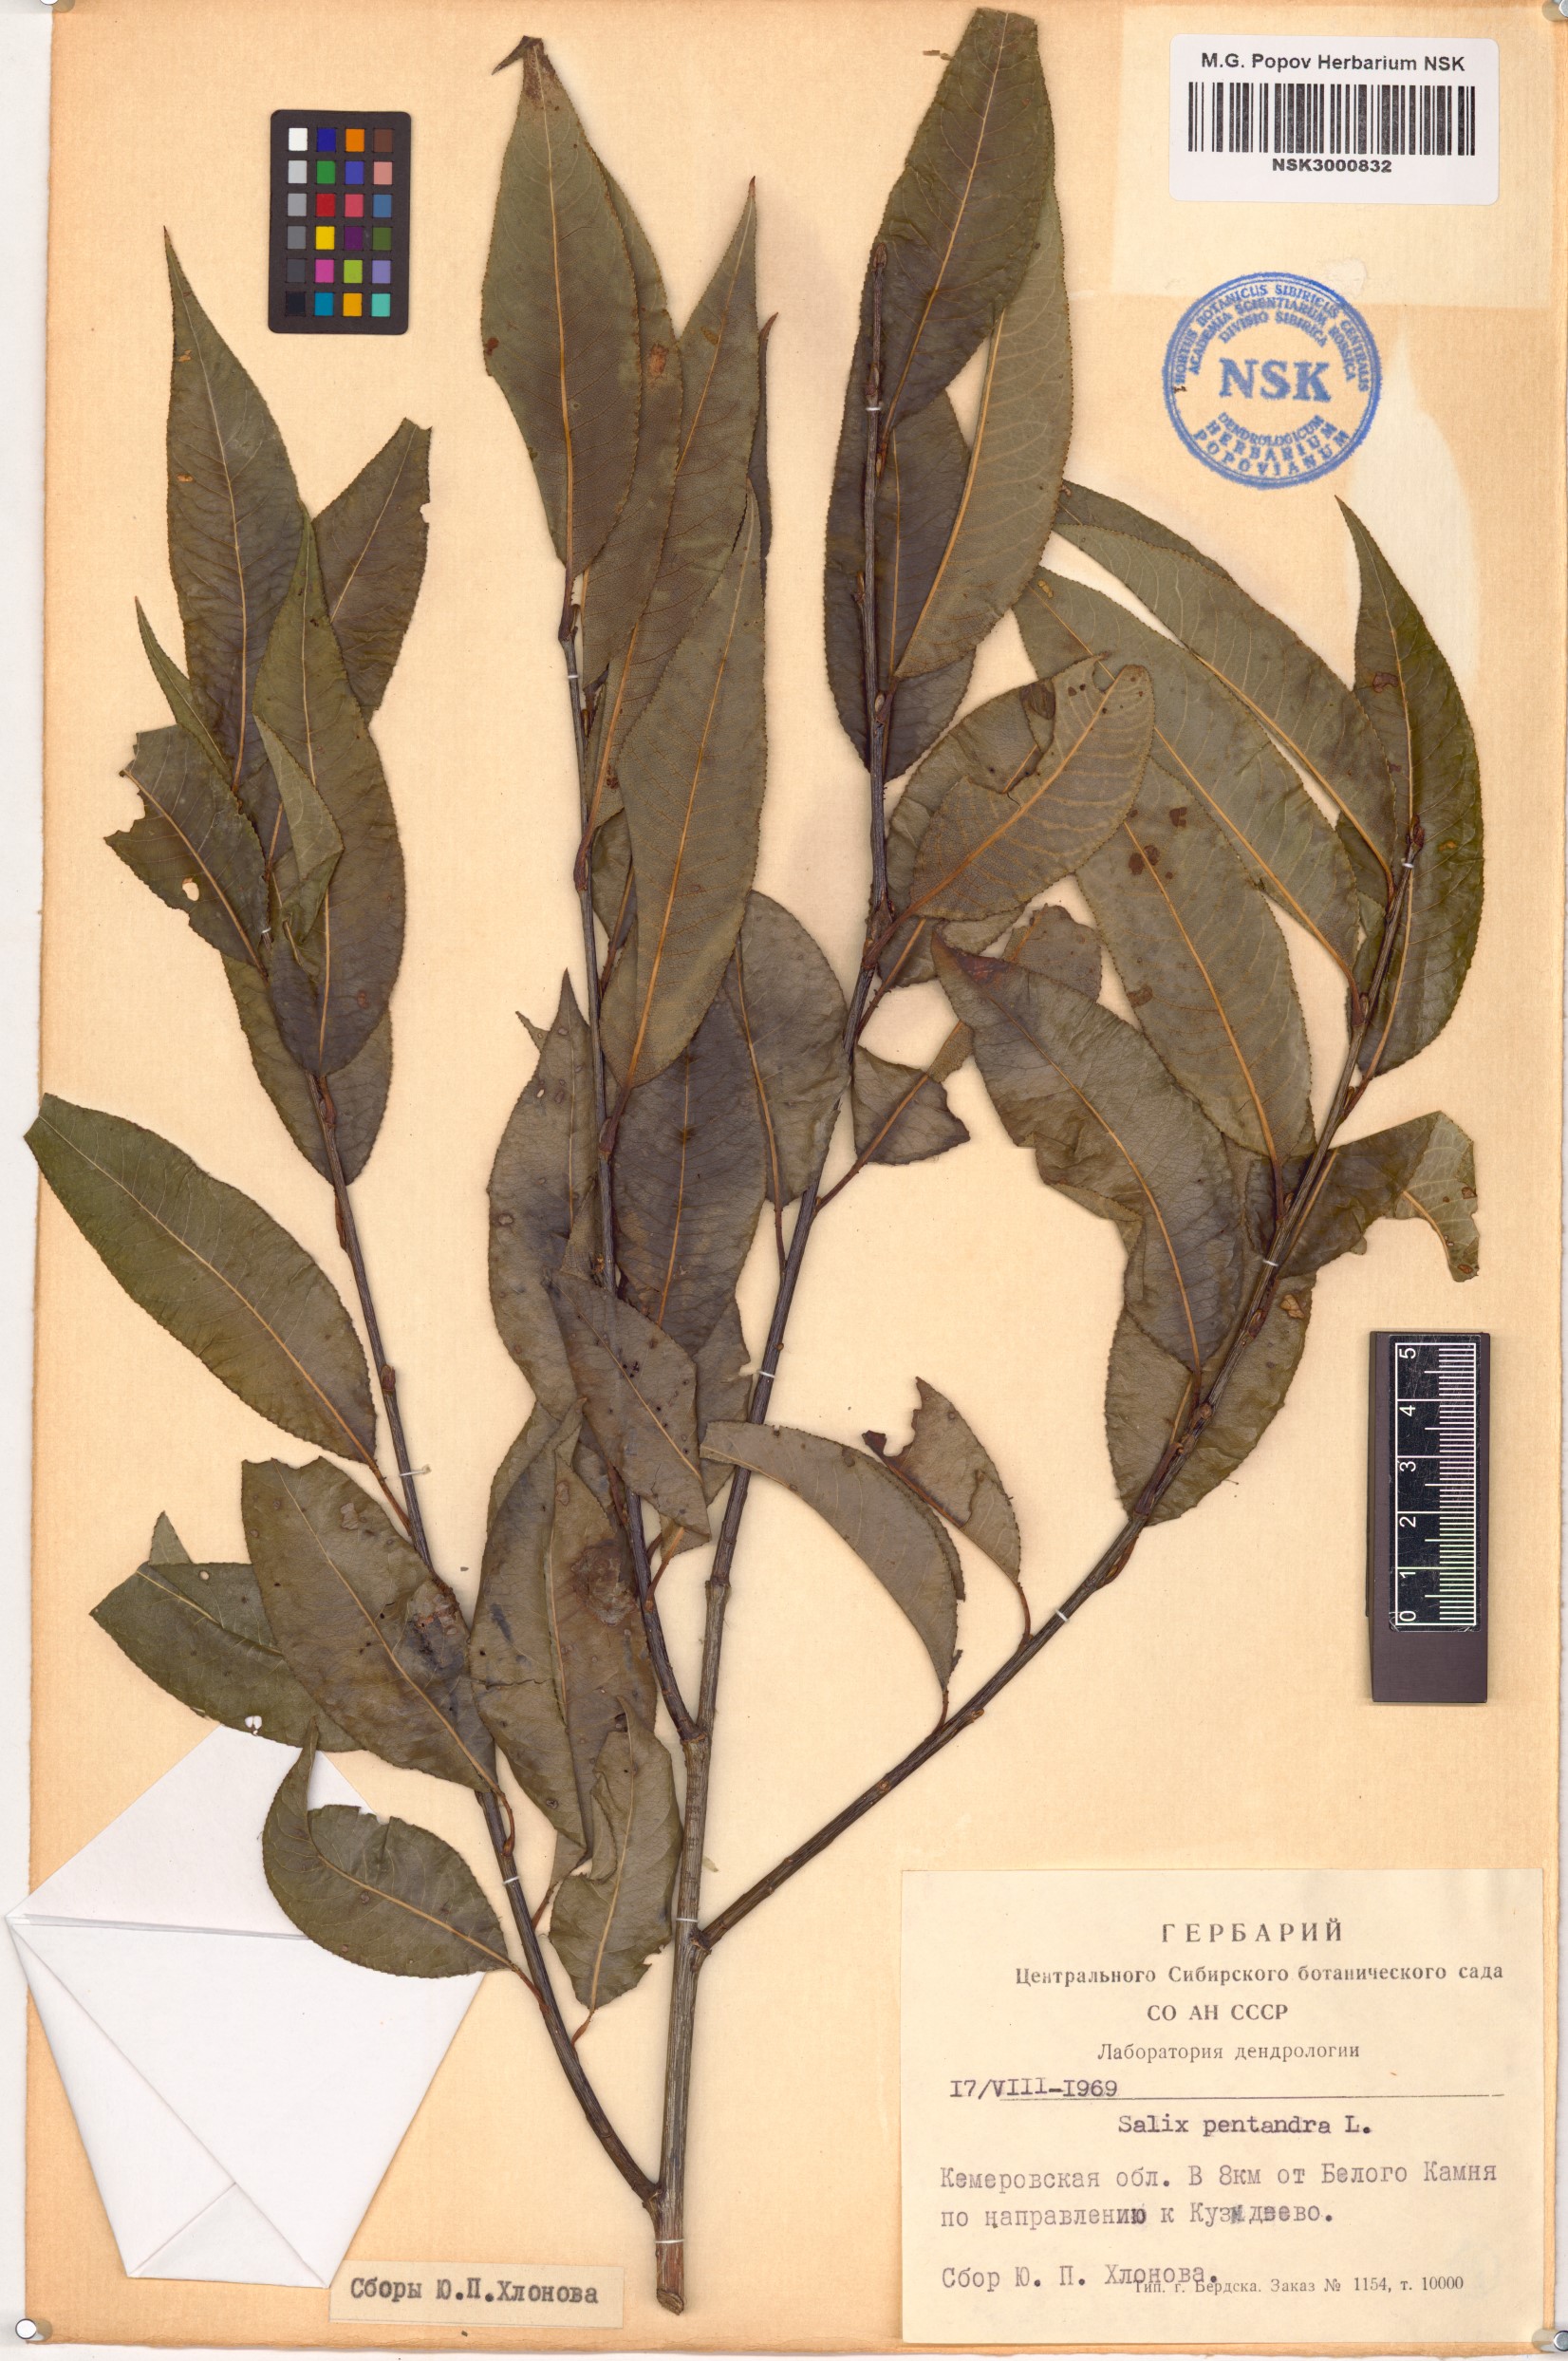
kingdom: Plantae
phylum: Tracheophyta
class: Magnoliopsida
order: Malpighiales
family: Salicaceae
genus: Salix
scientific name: Salix pentandra
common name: Bay willow
